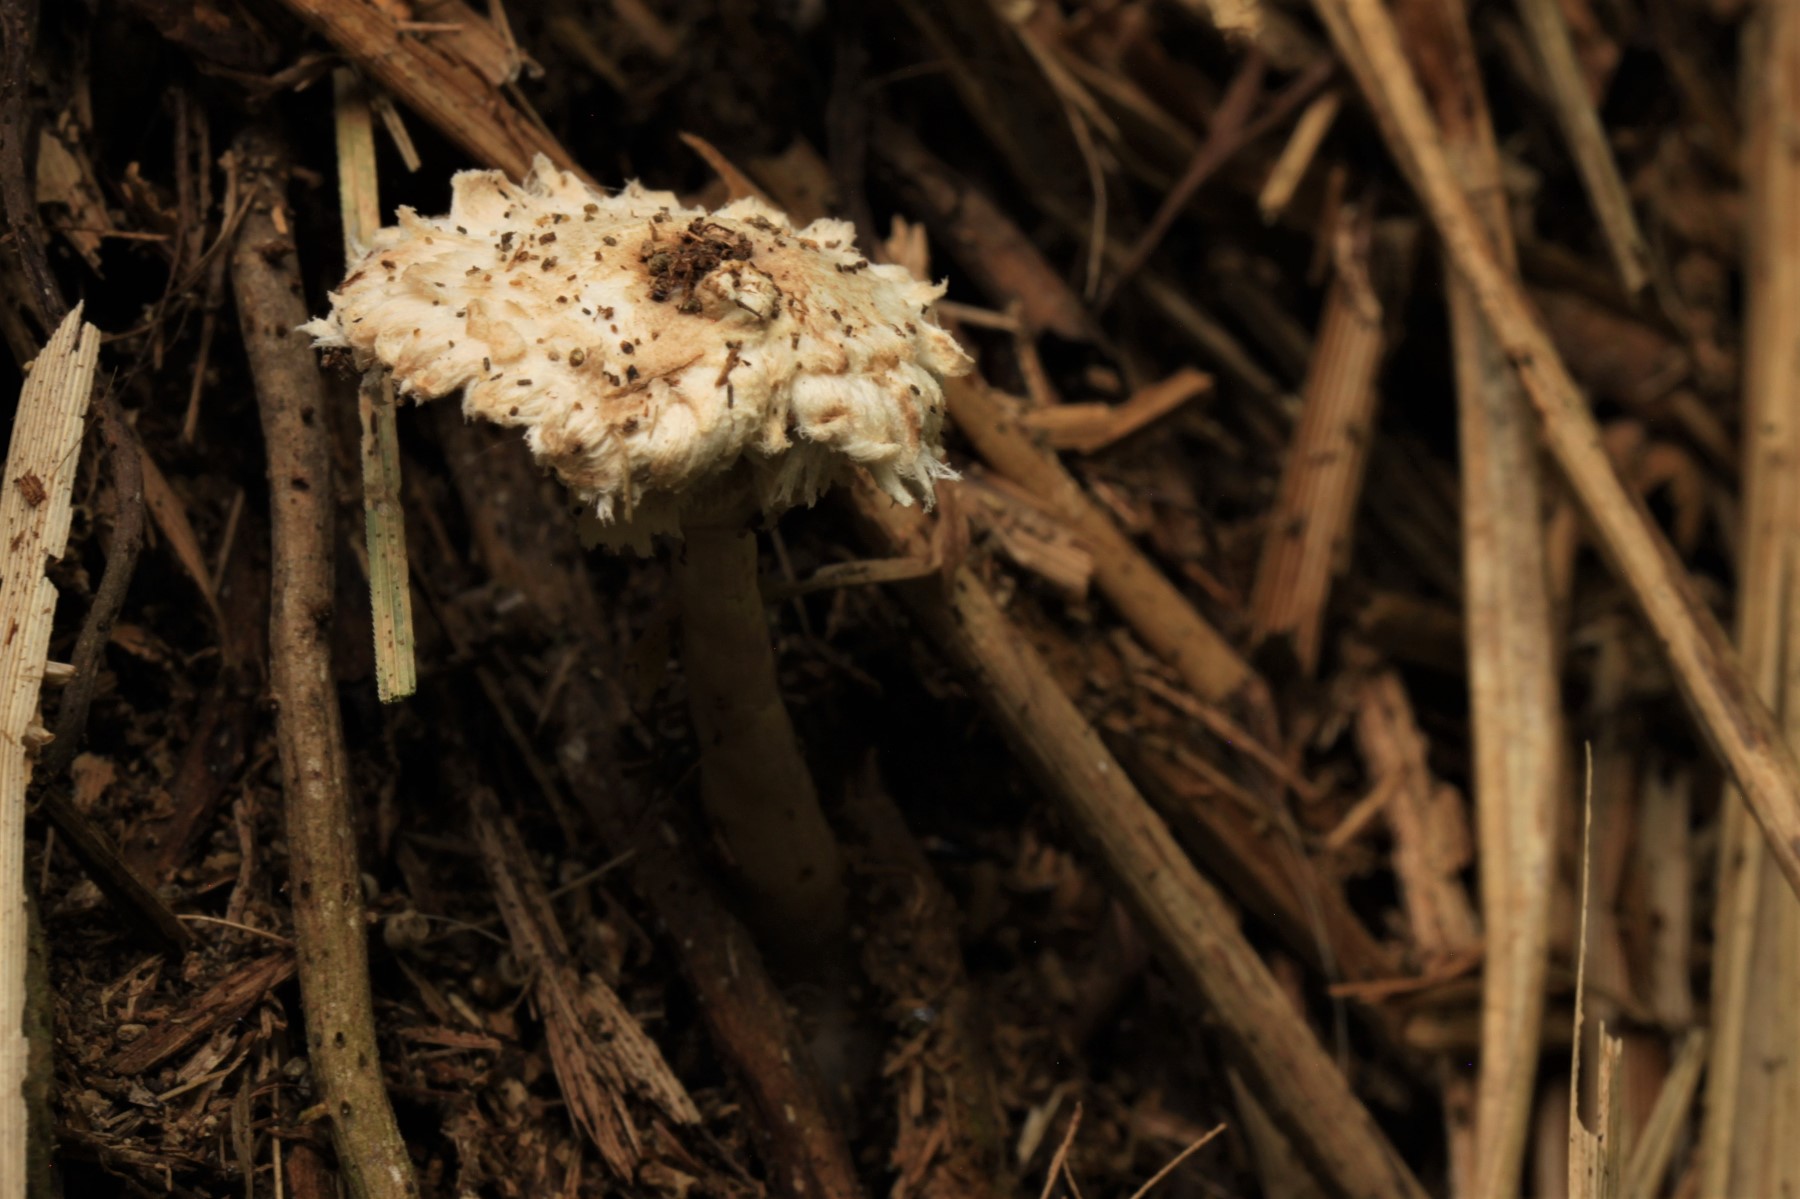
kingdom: Fungi
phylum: Basidiomycota
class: Agaricomycetes
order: Agaricales
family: Agaricaceae
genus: Leucoagaricus
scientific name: Leucoagaricus nympharum
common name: gran-silkehat
